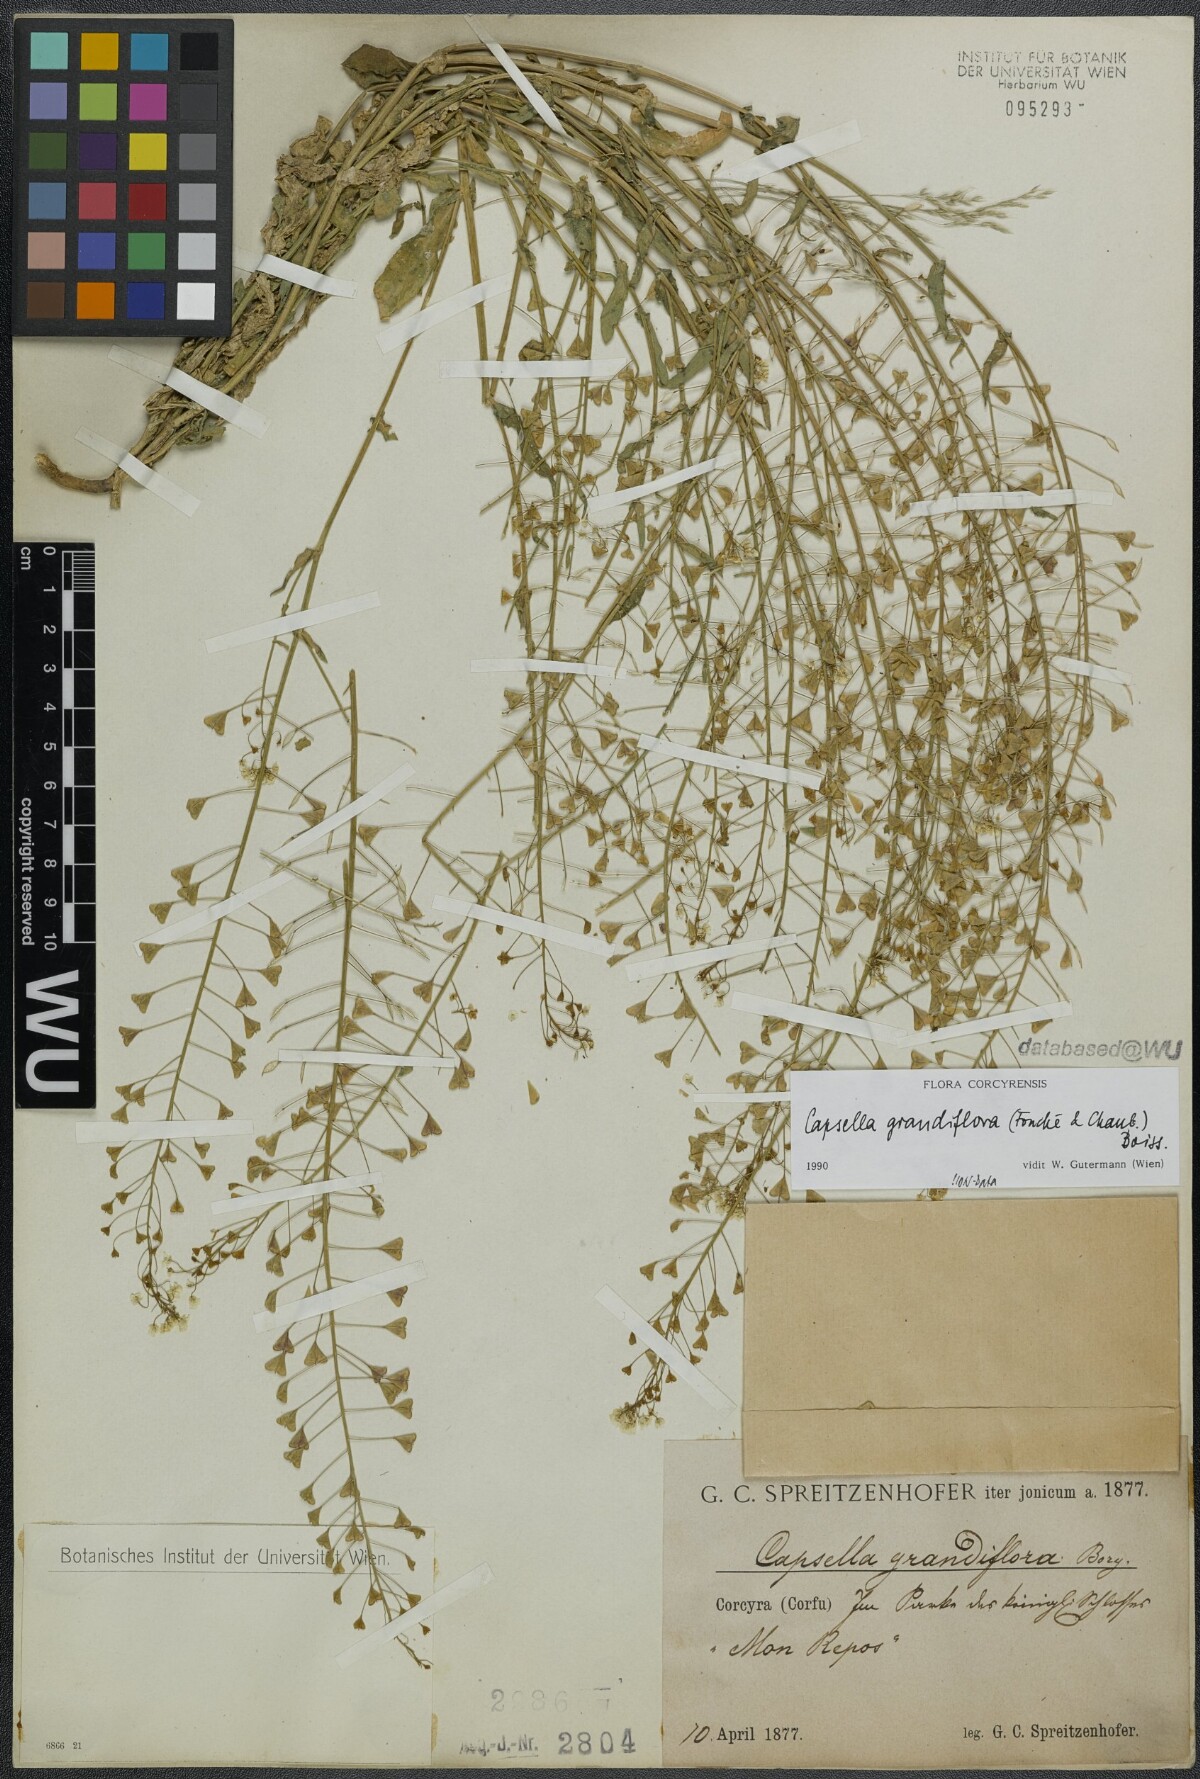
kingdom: Plantae
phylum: Tracheophyta
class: Magnoliopsida
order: Brassicales
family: Brassicaceae
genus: Capsella
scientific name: Capsella grandiflora
